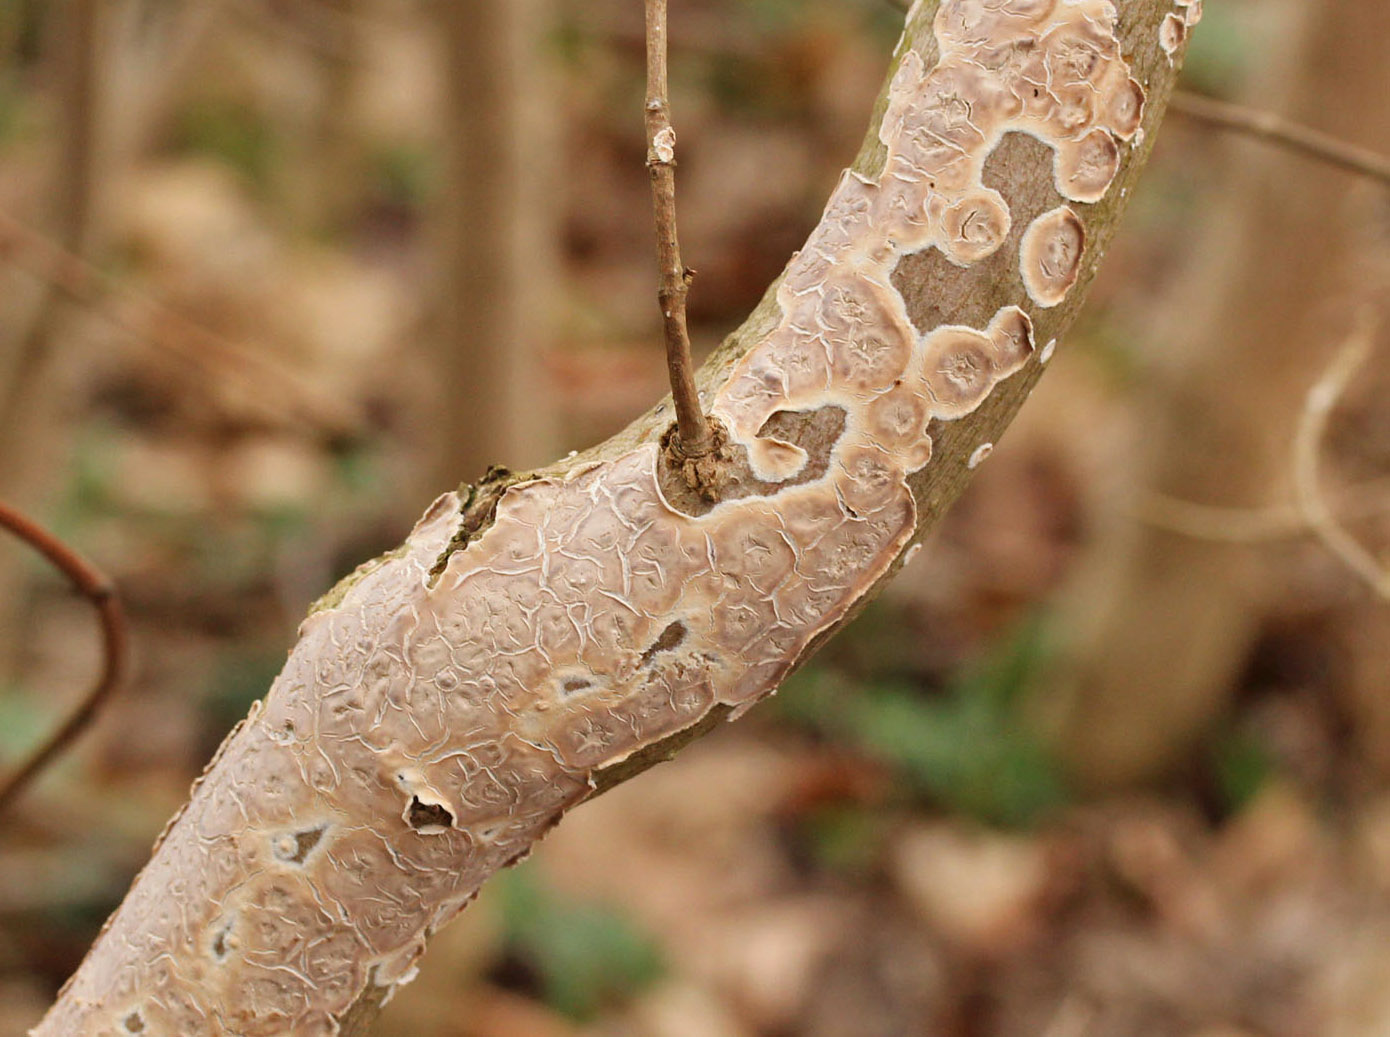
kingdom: Fungi
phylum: Basidiomycota
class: Agaricomycetes
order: Agaricales
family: Physalacriaceae
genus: Cylindrobasidium
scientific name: Cylindrobasidium evolvens
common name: sprækkehinde
